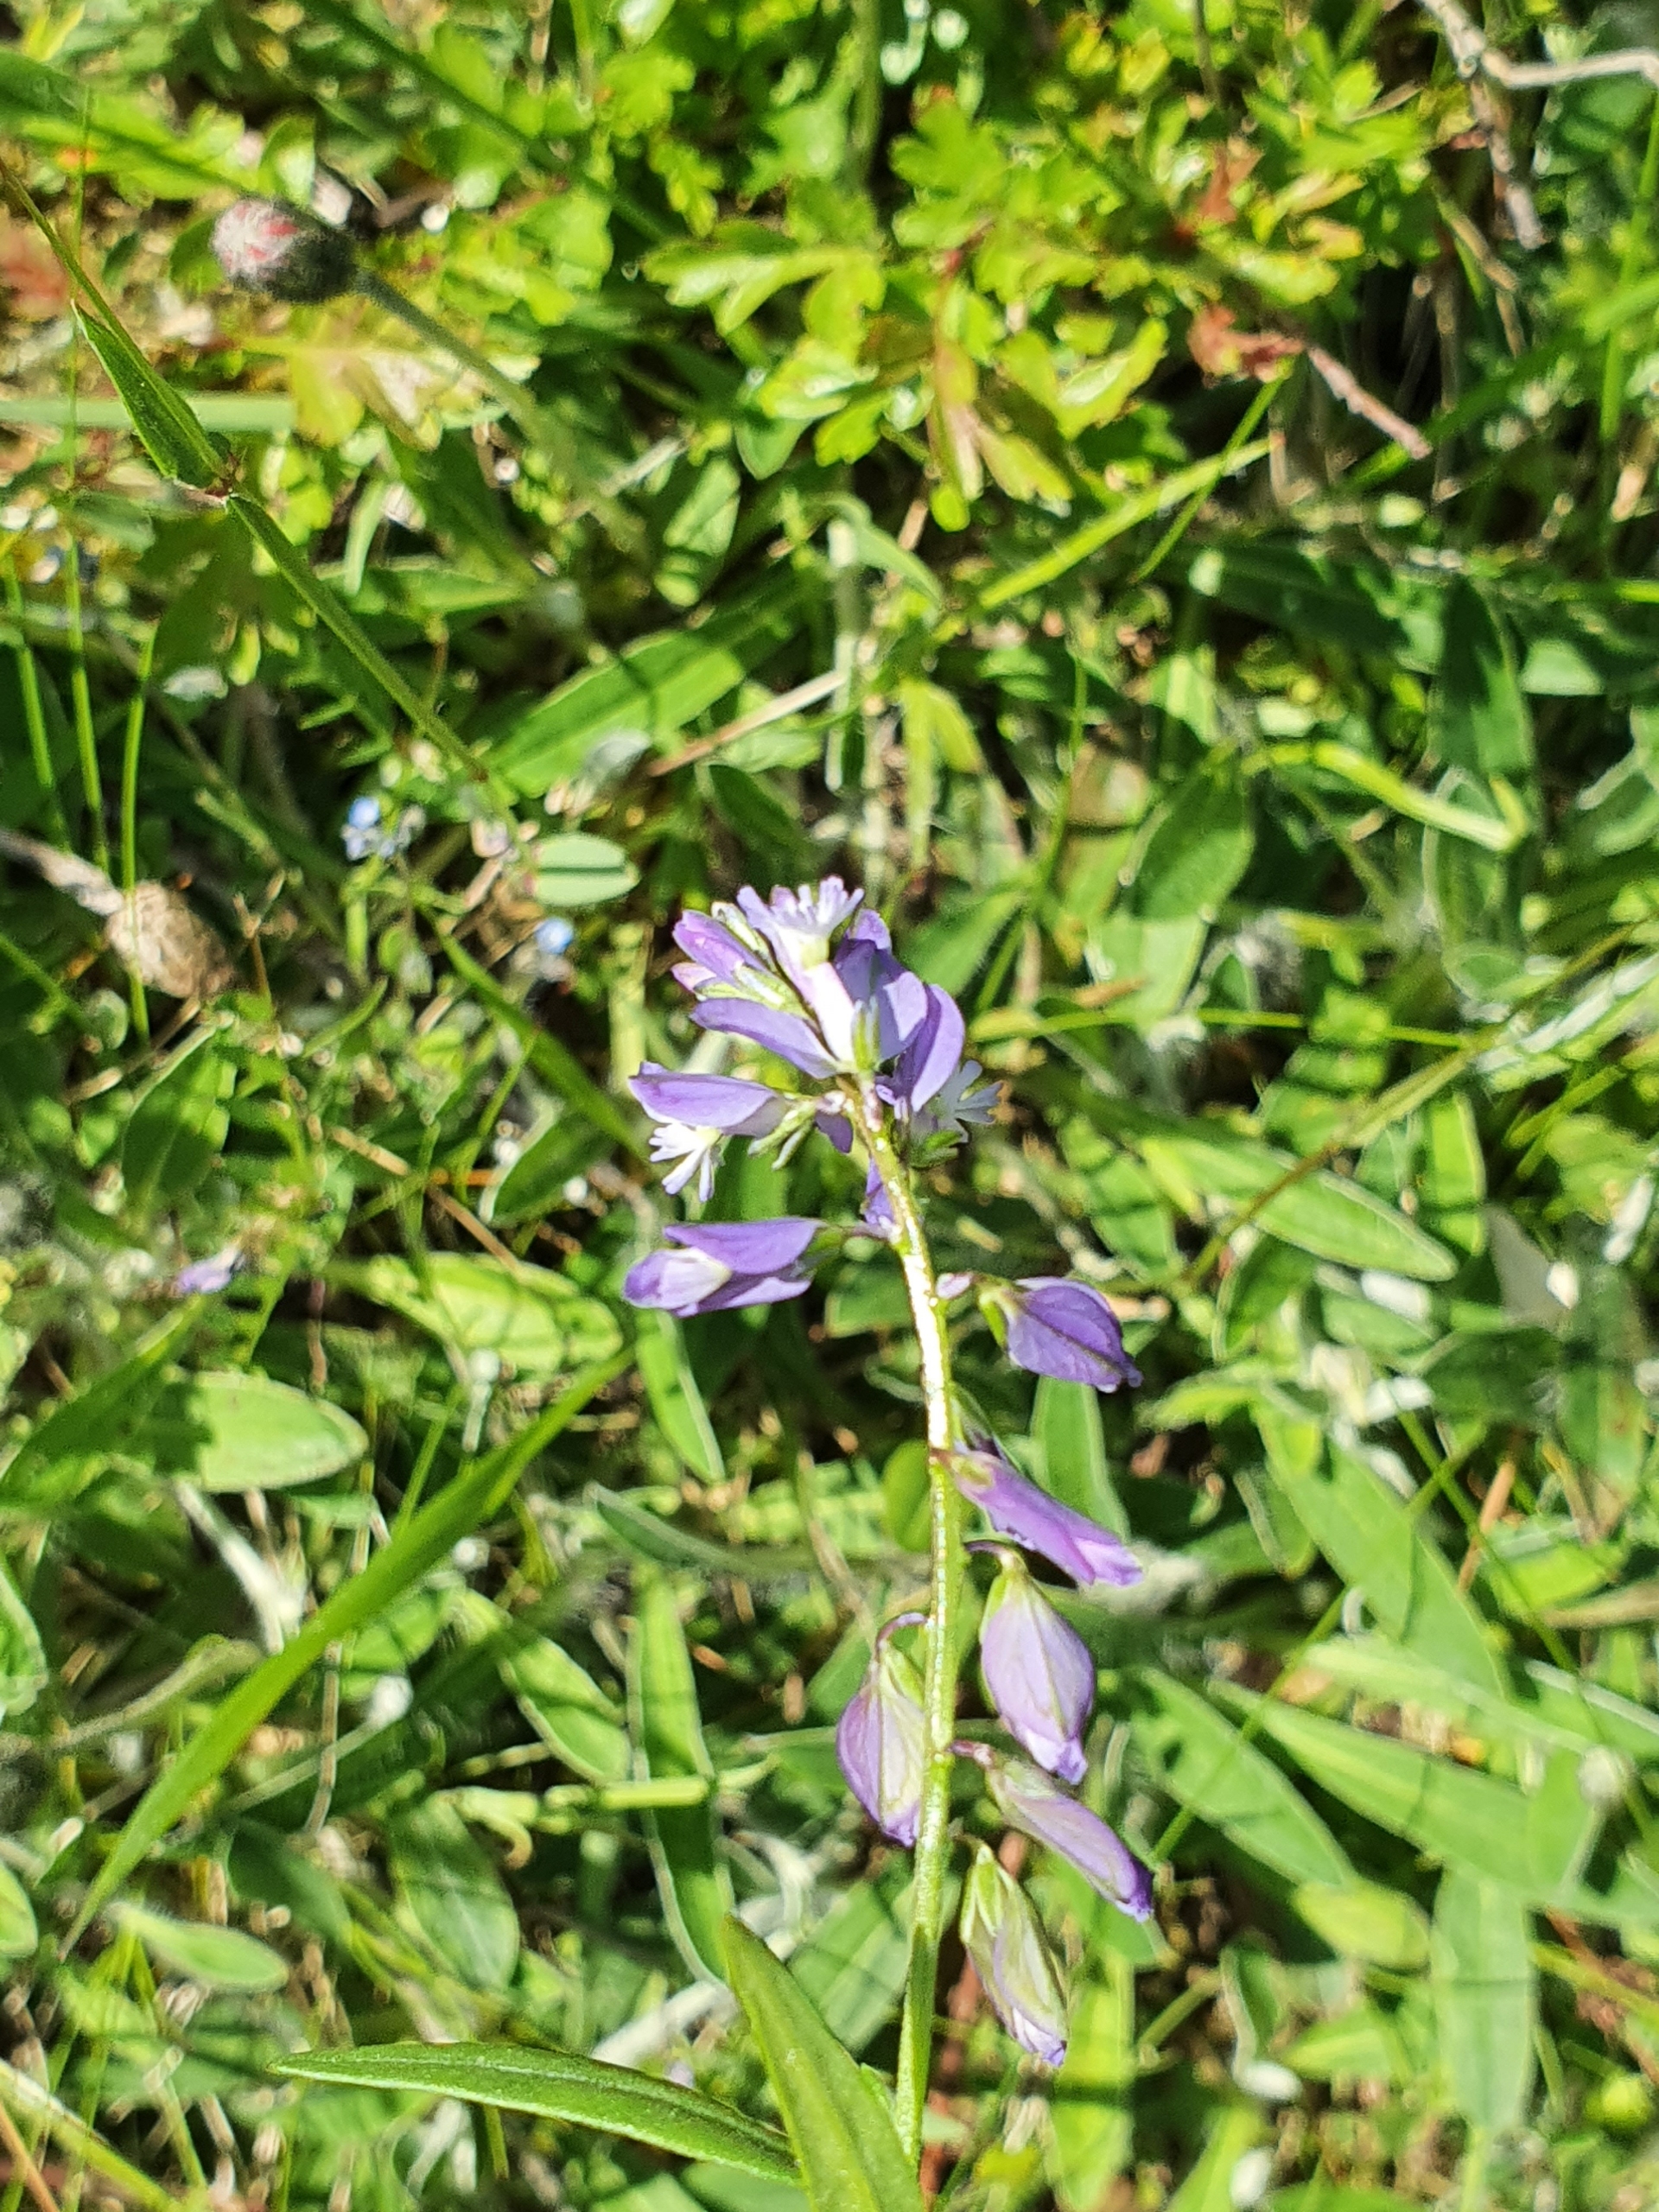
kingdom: Plantae
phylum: Tracheophyta
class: Magnoliopsida
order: Fabales
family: Polygalaceae
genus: Polygala
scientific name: Polygala vulgaris
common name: Almindelig mælkeurt
